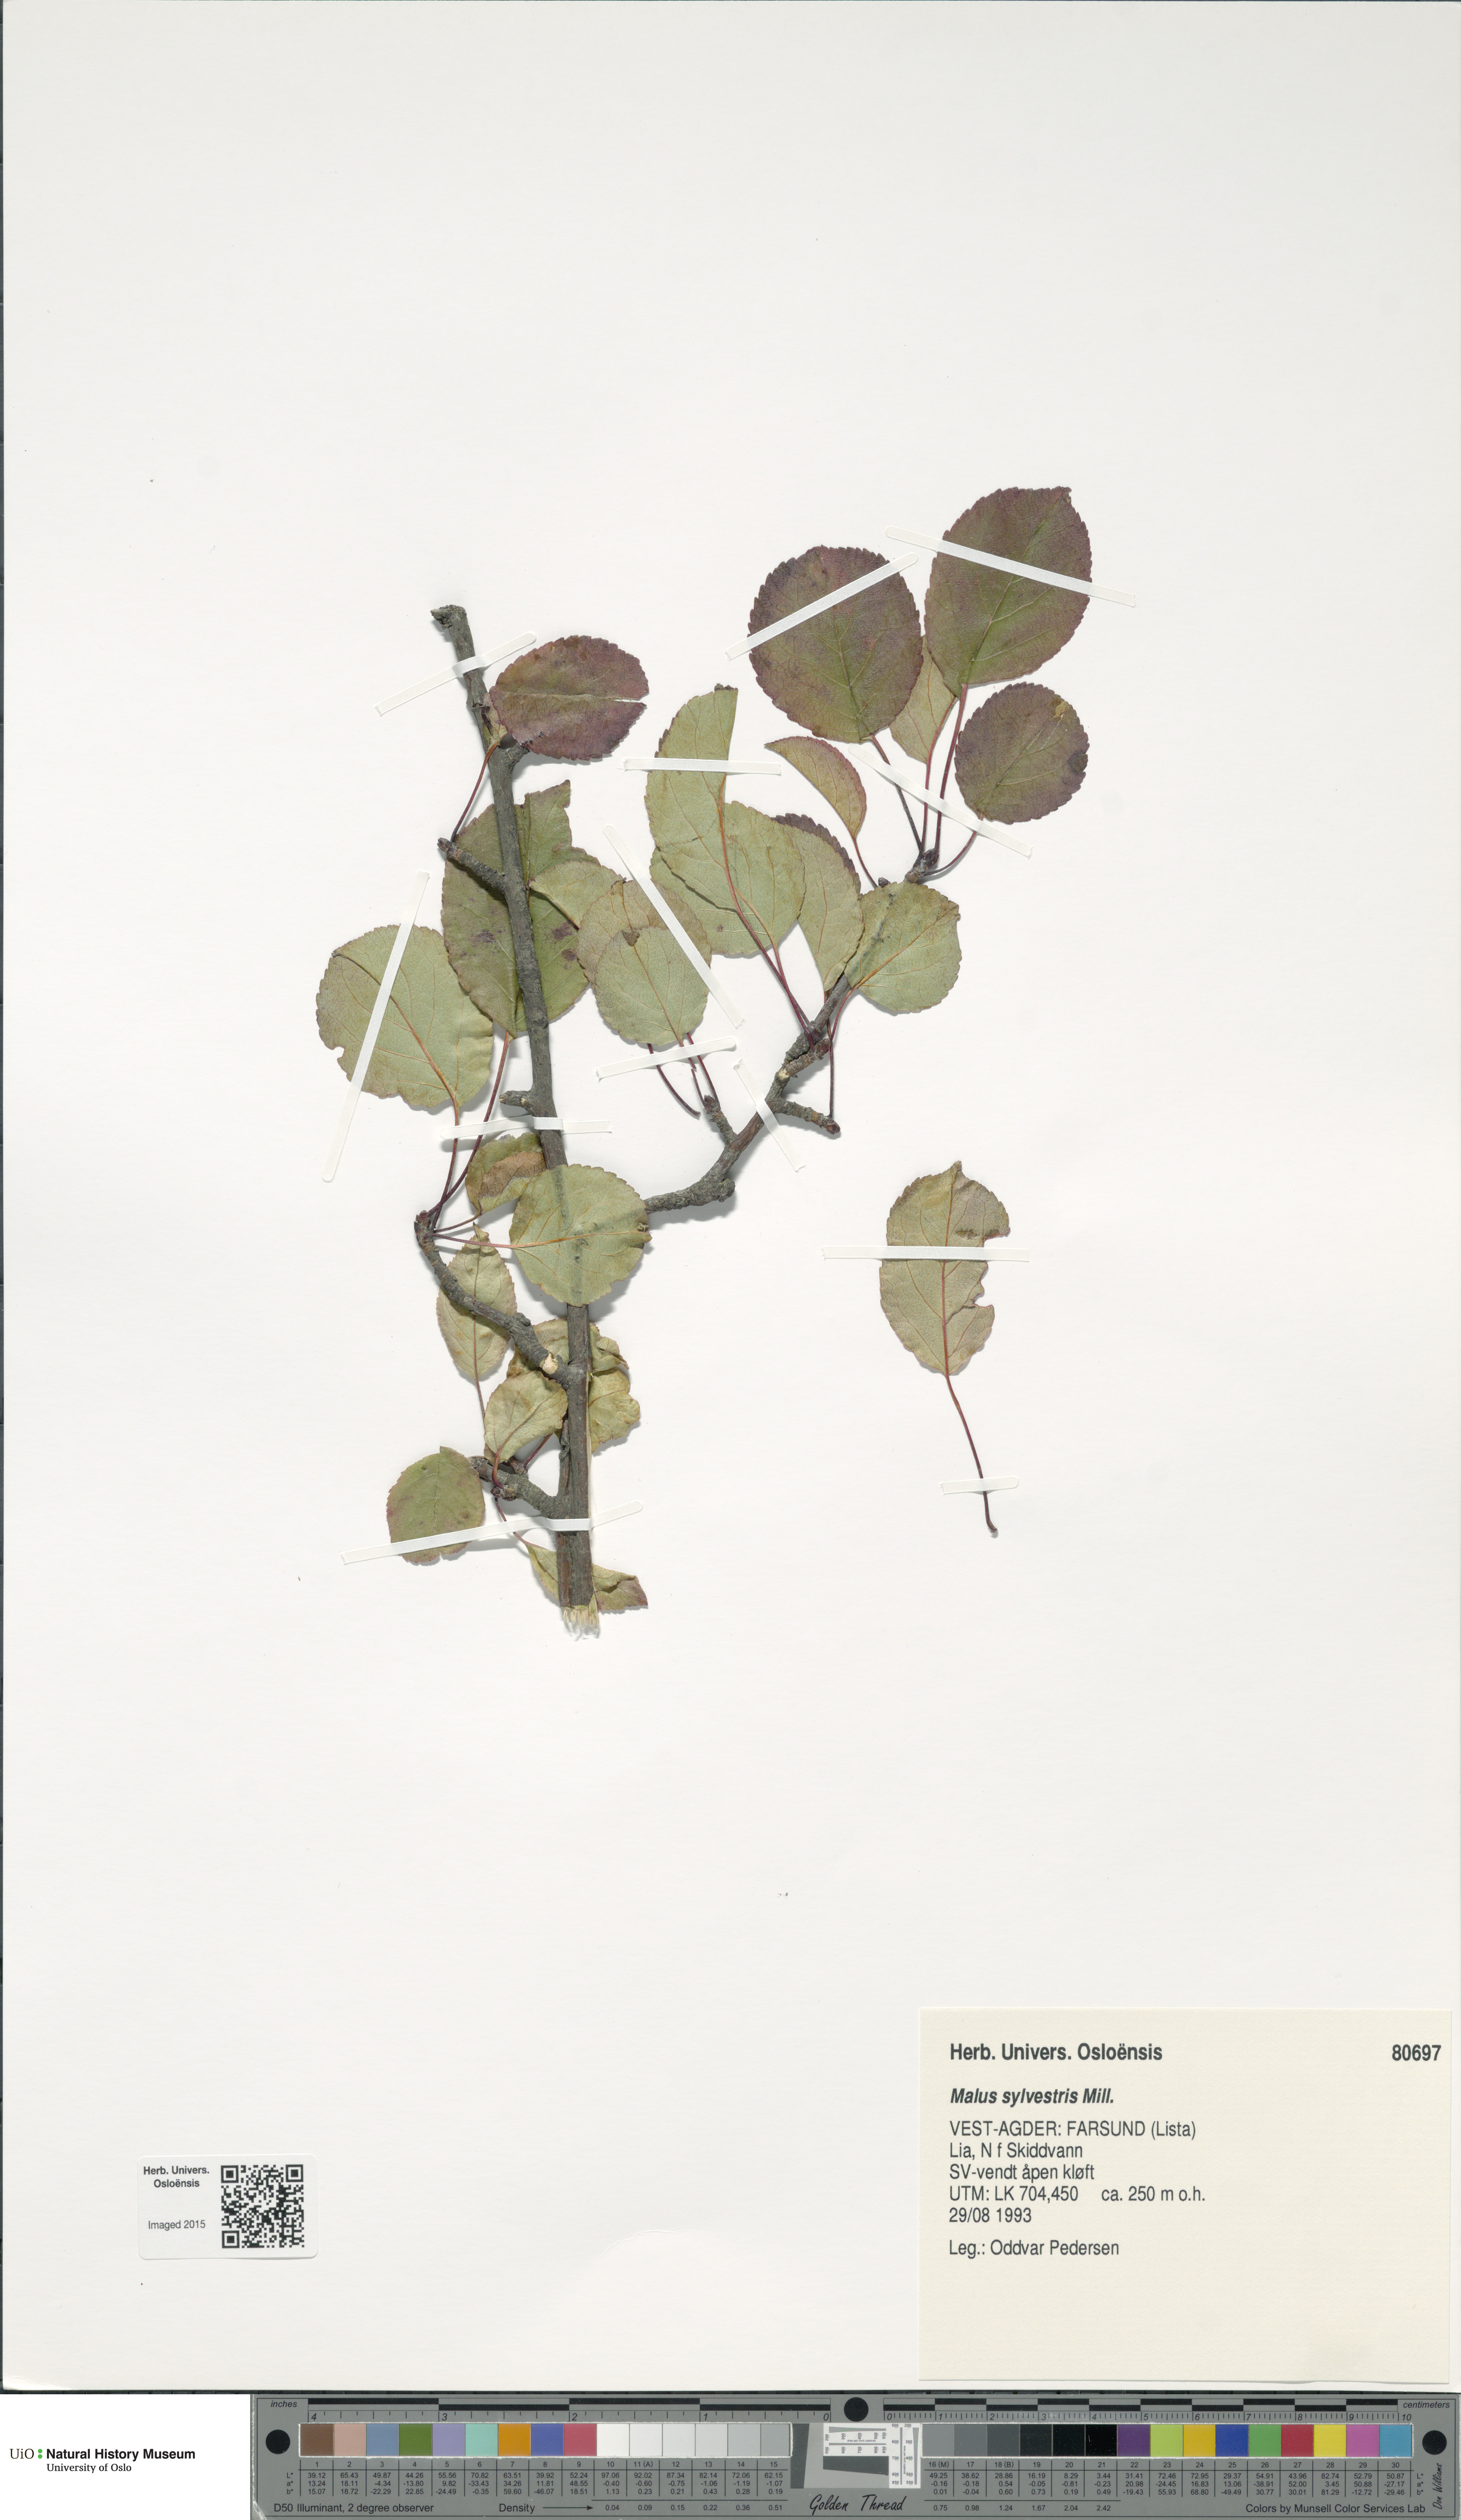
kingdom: Plantae
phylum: Tracheophyta
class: Magnoliopsida
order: Rosales
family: Rosaceae
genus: Malus
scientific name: Malus sylvestris
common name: Crab apple
